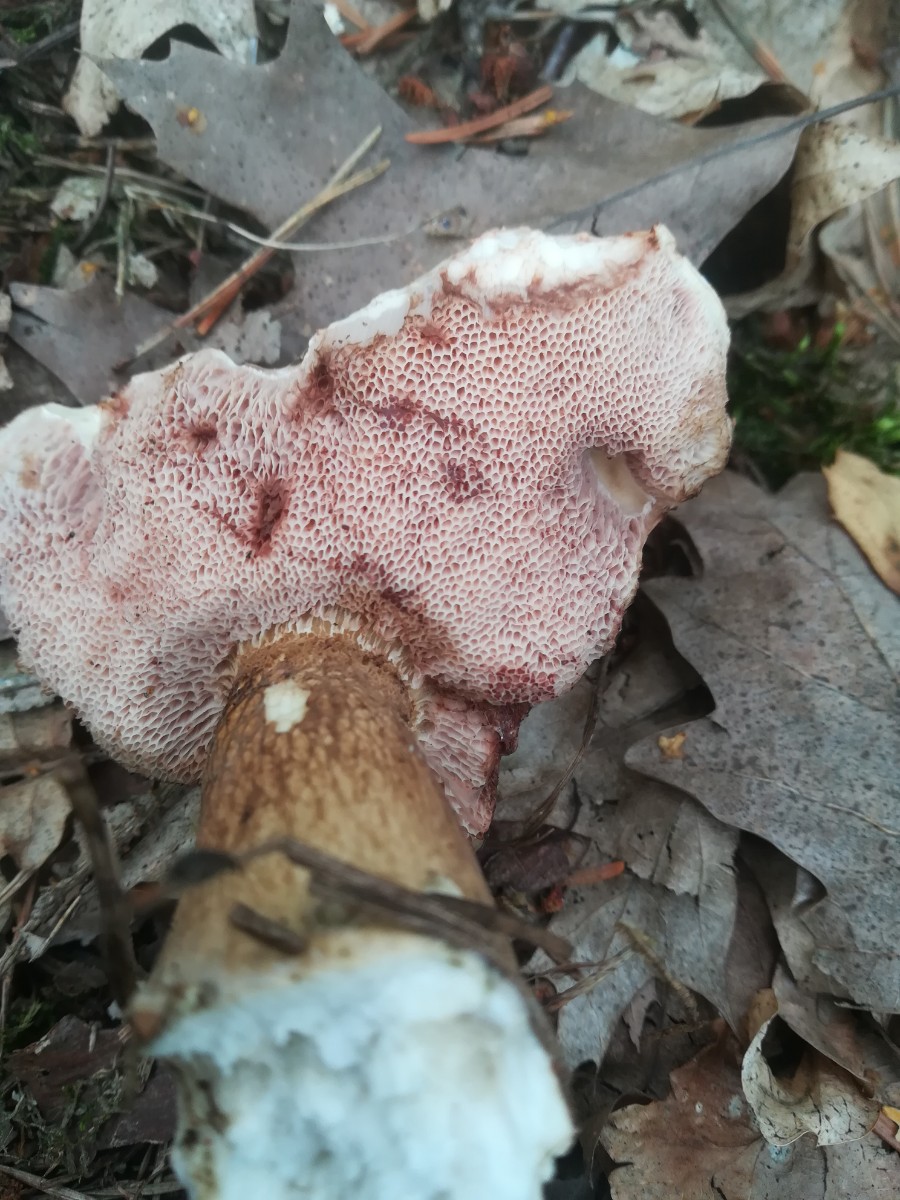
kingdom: Fungi
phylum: Basidiomycota
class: Agaricomycetes
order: Boletales
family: Boletaceae
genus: Tylopilus
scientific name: Tylopilus felleus
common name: galderørhat
